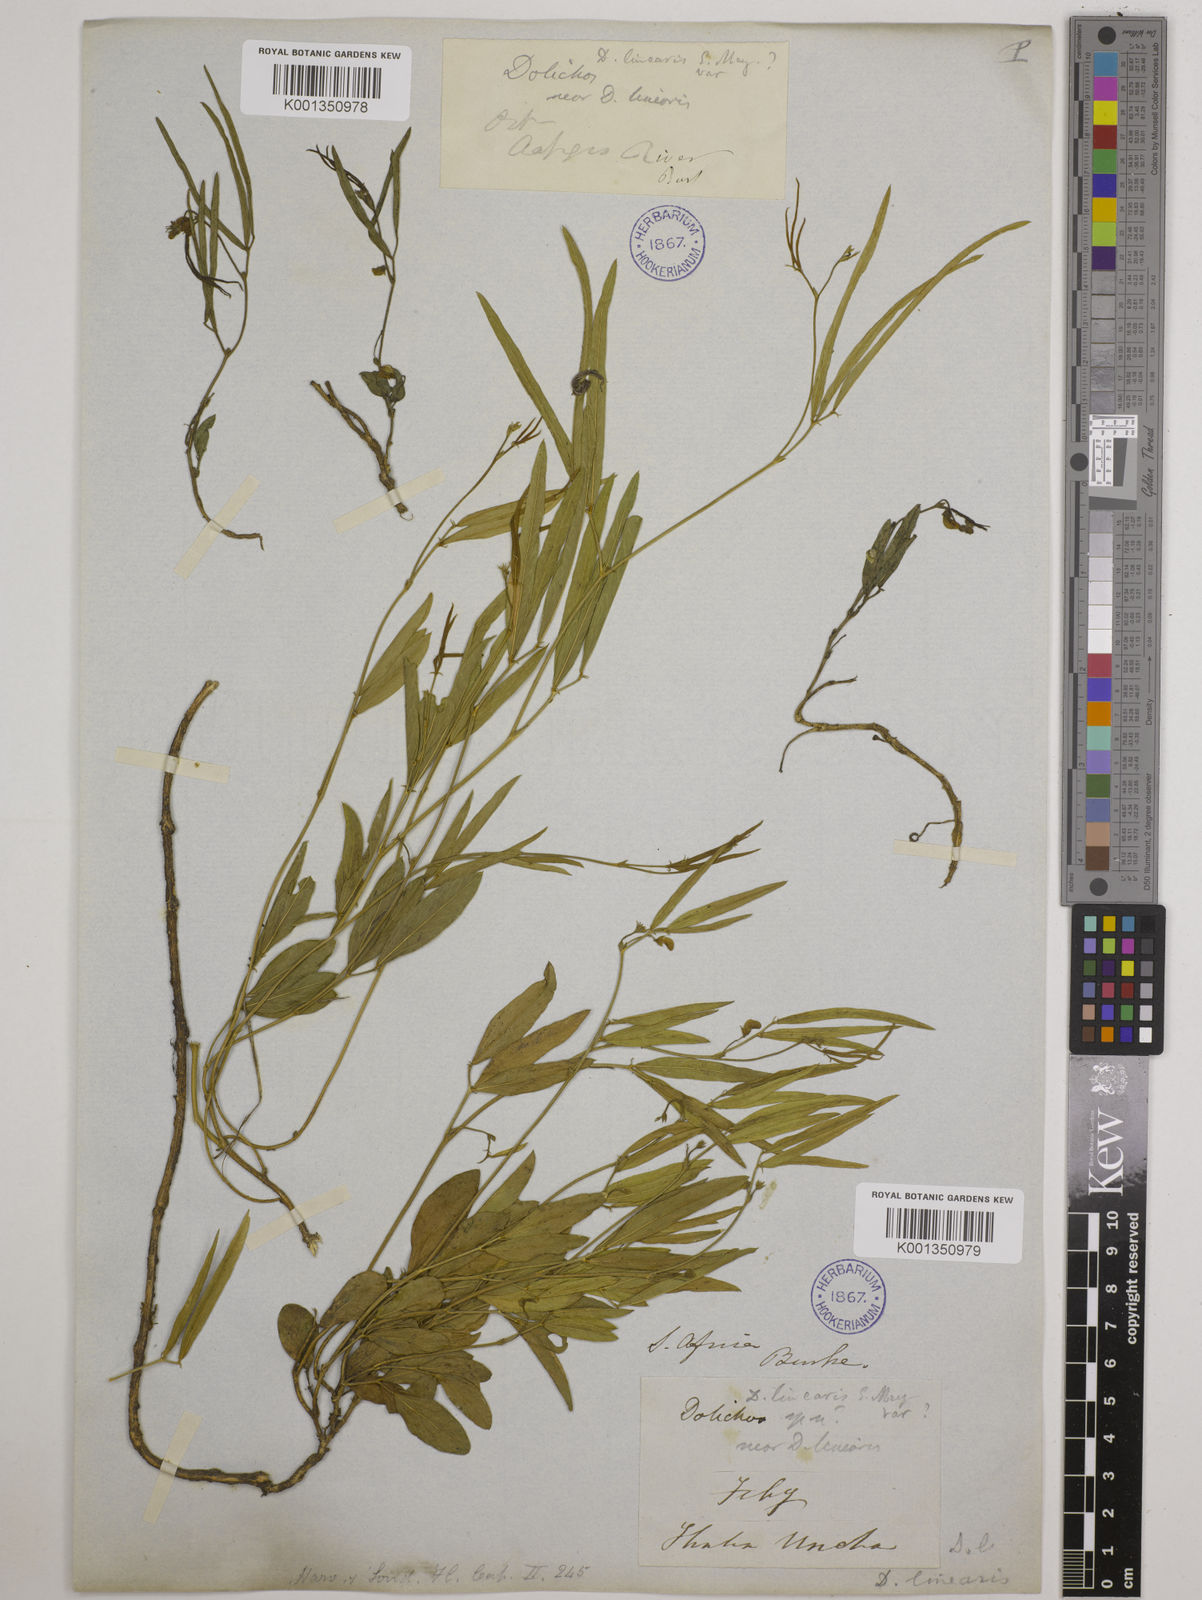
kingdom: Plantae
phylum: Tracheophyta
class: Magnoliopsida
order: Fabales
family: Fabaceae
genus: Dolichos
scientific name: Dolichos
